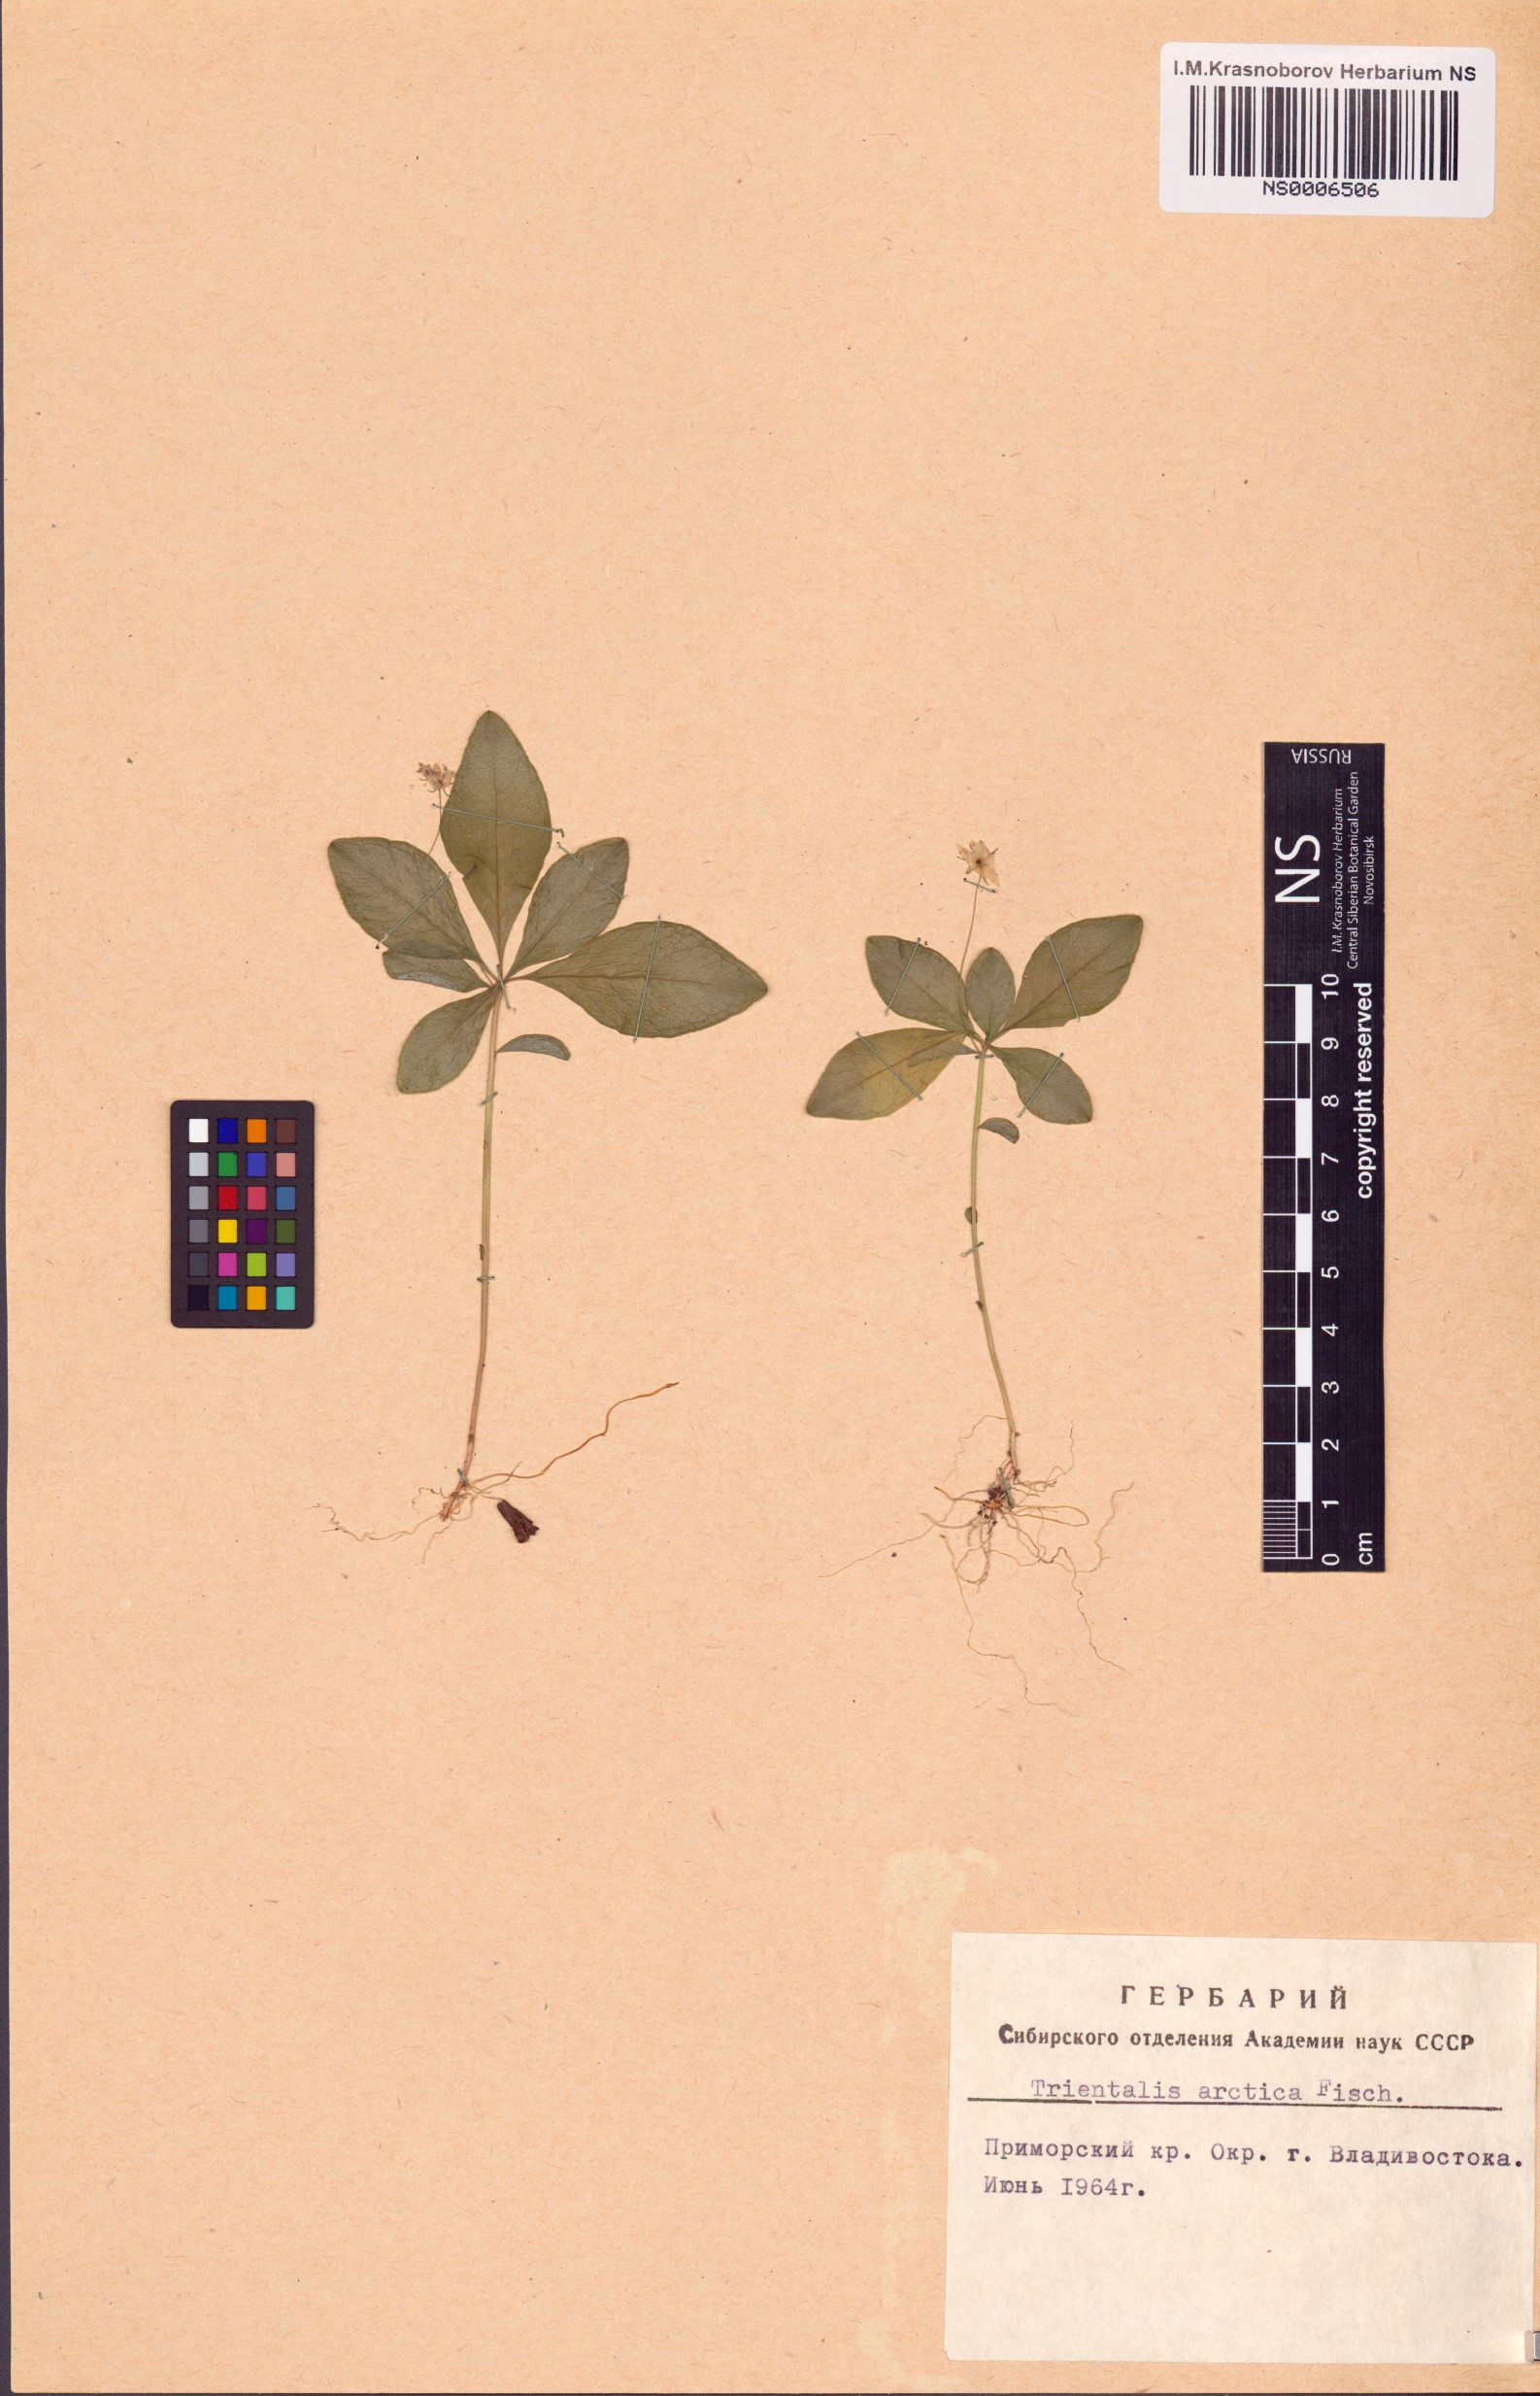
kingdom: Plantae
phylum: Tracheophyta
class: Magnoliopsida
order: Ericales
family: Primulaceae
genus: Lysimachia
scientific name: Lysimachia europaea
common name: Arctic starflower
